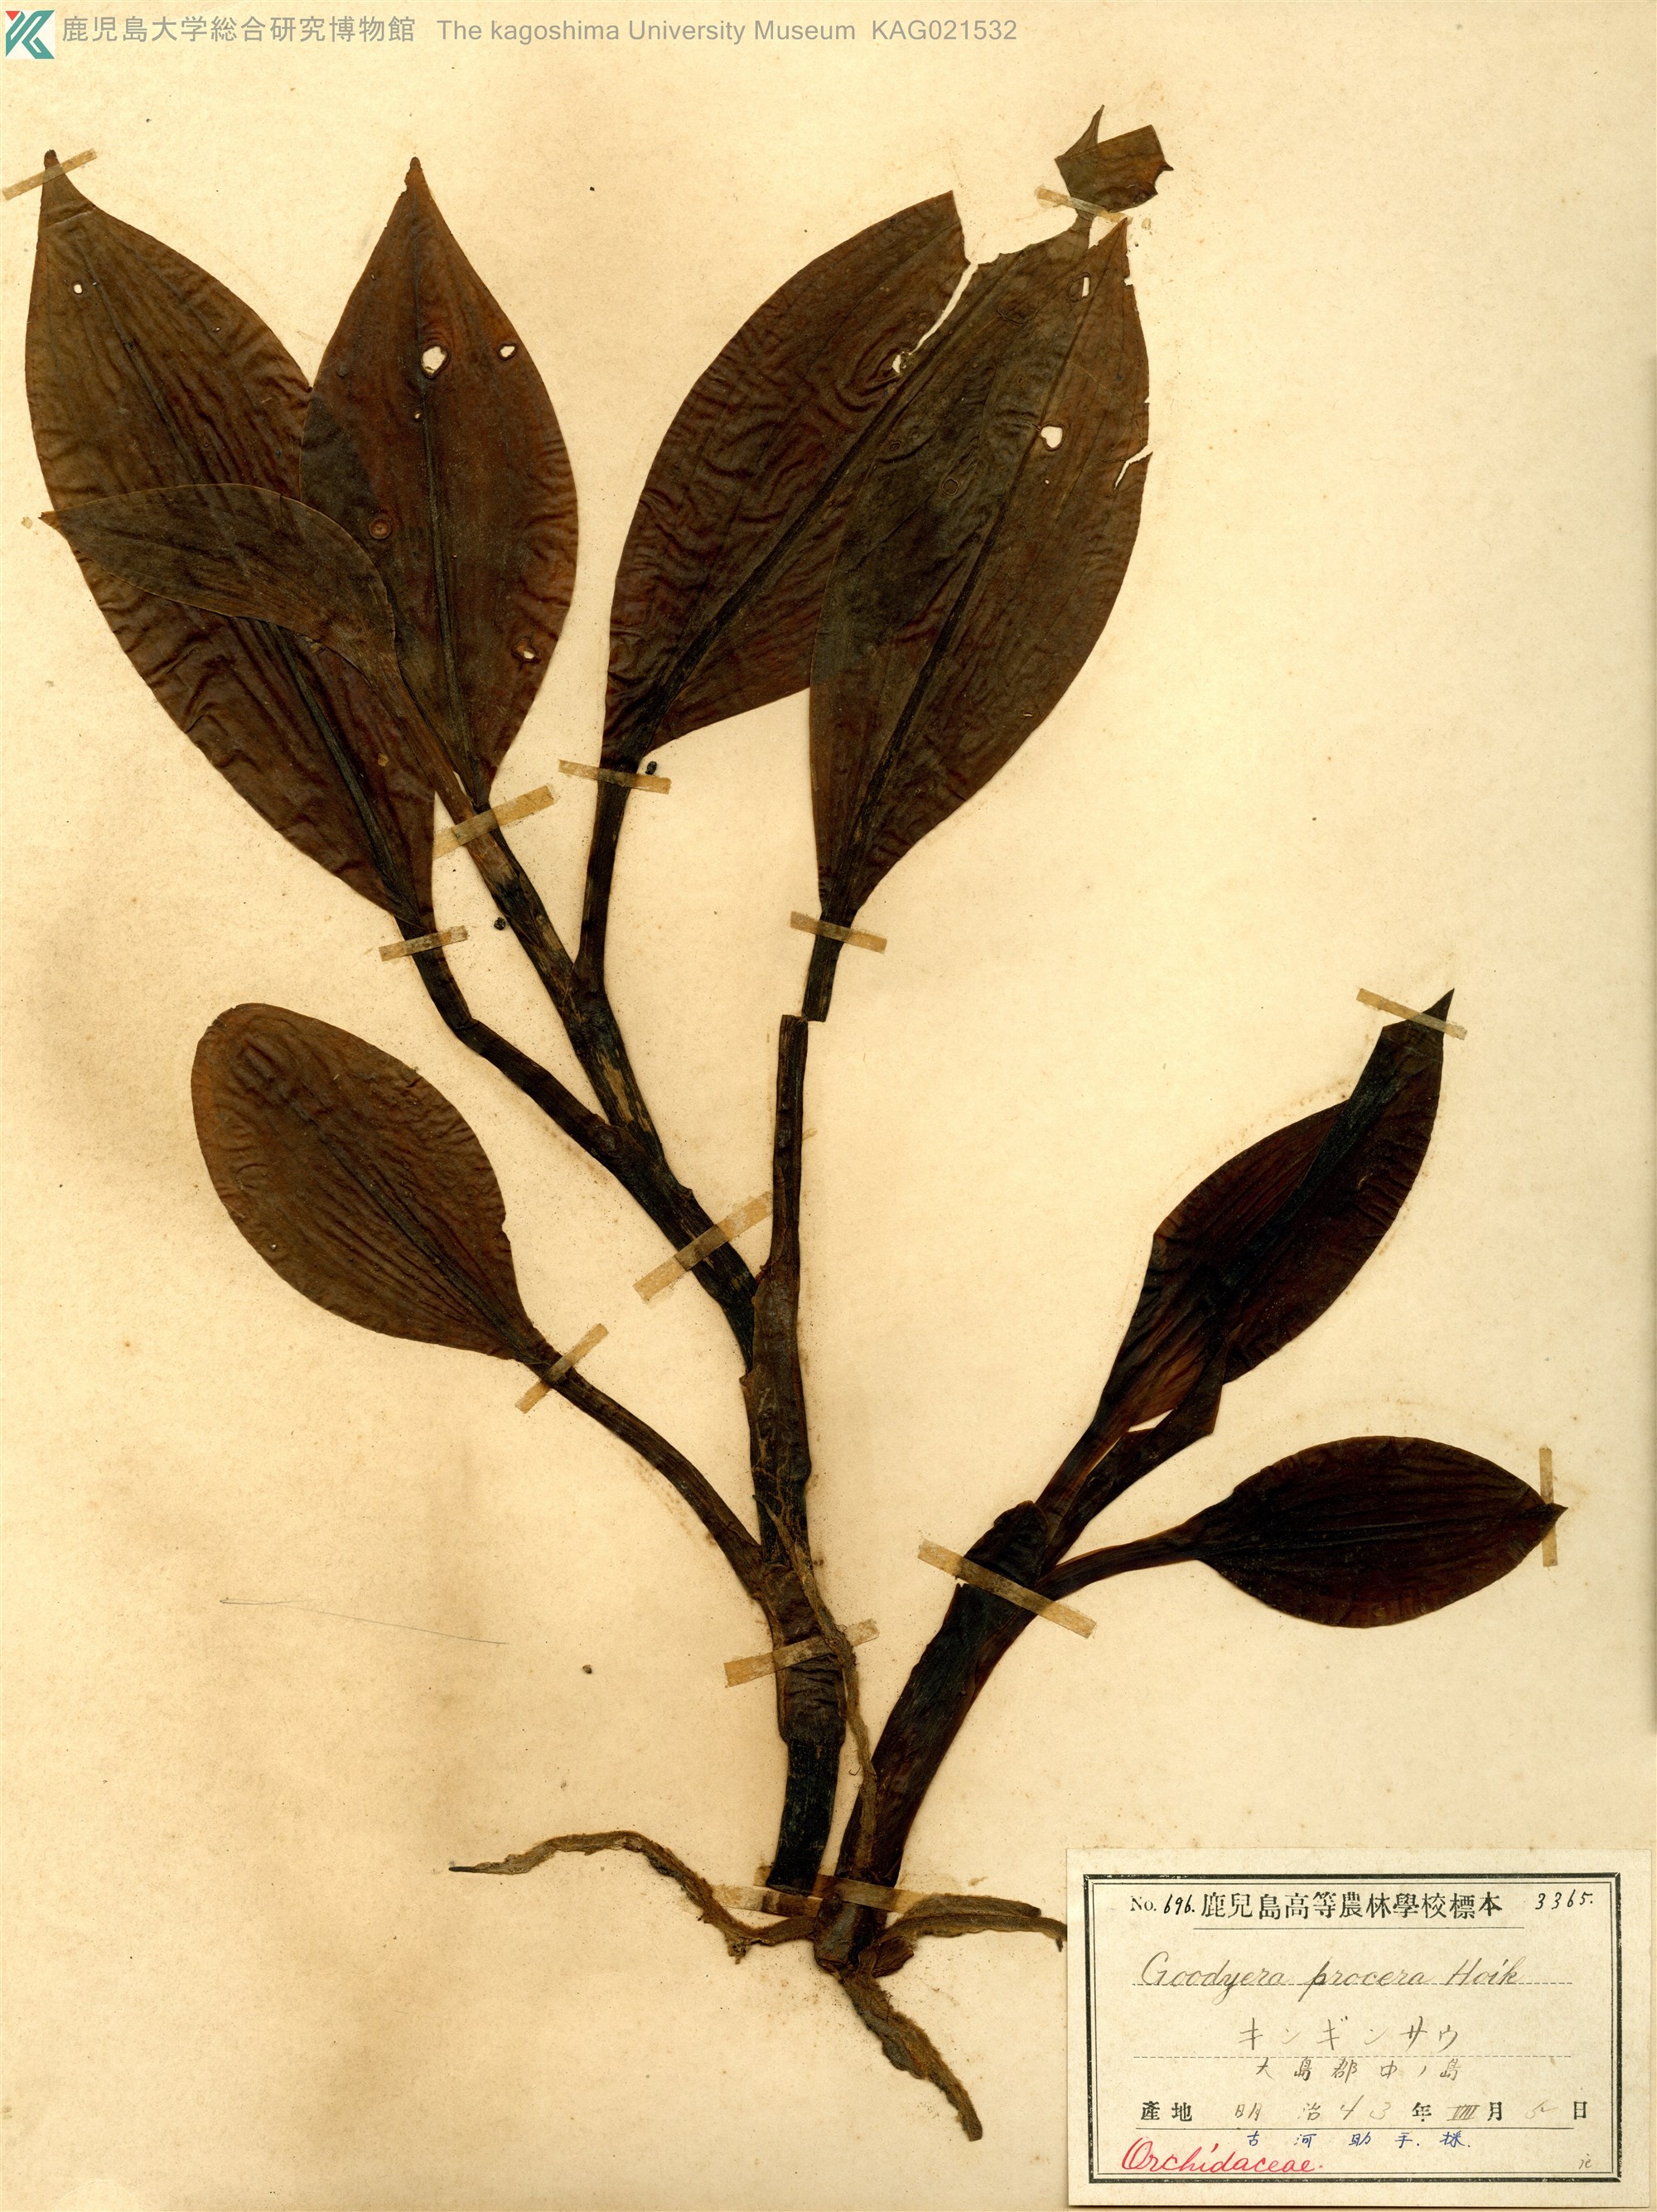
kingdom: Plantae
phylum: Tracheophyta
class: Liliopsida
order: Asparagales
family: Orchidaceae
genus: Goodyera
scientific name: Goodyera procera
